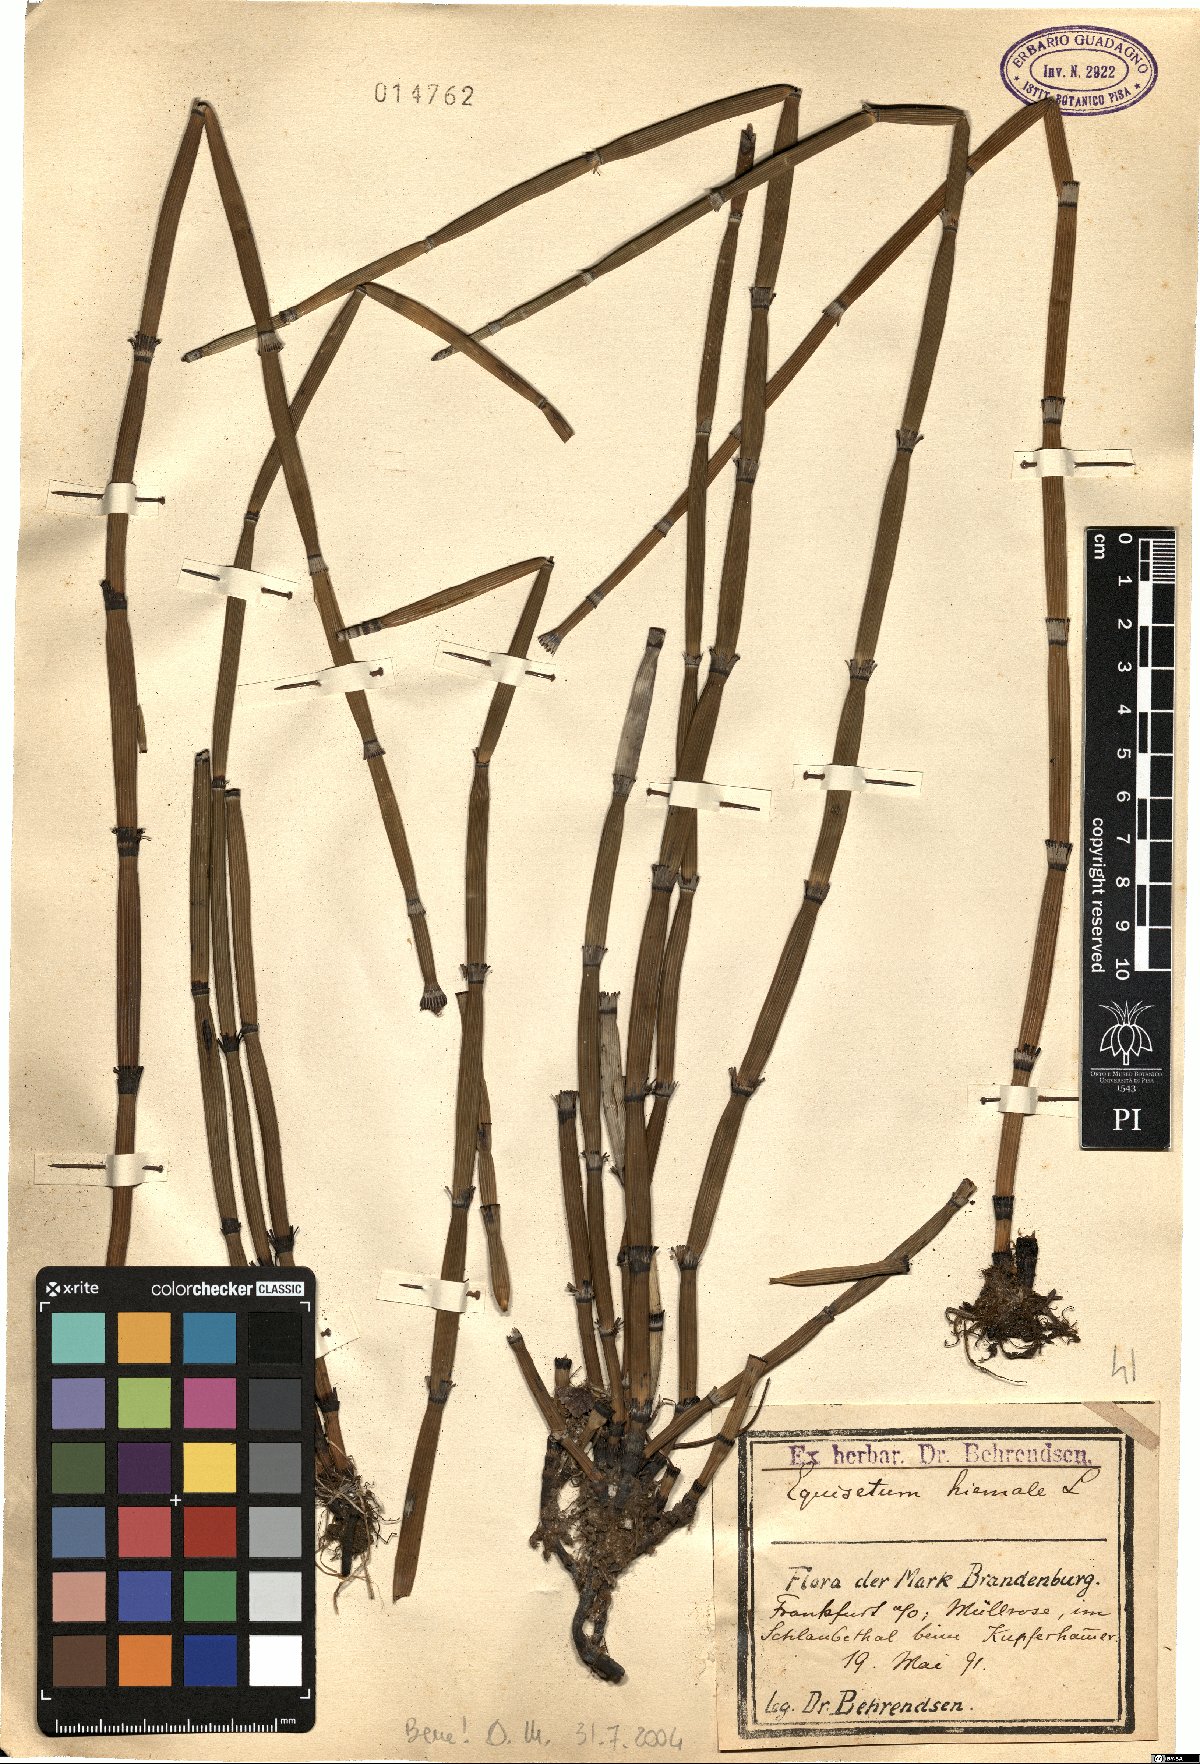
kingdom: Plantae
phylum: Tracheophyta
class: Polypodiopsida
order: Equisetales
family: Equisetaceae
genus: Equisetum
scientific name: Equisetum hyemale
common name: Rough horsetail
